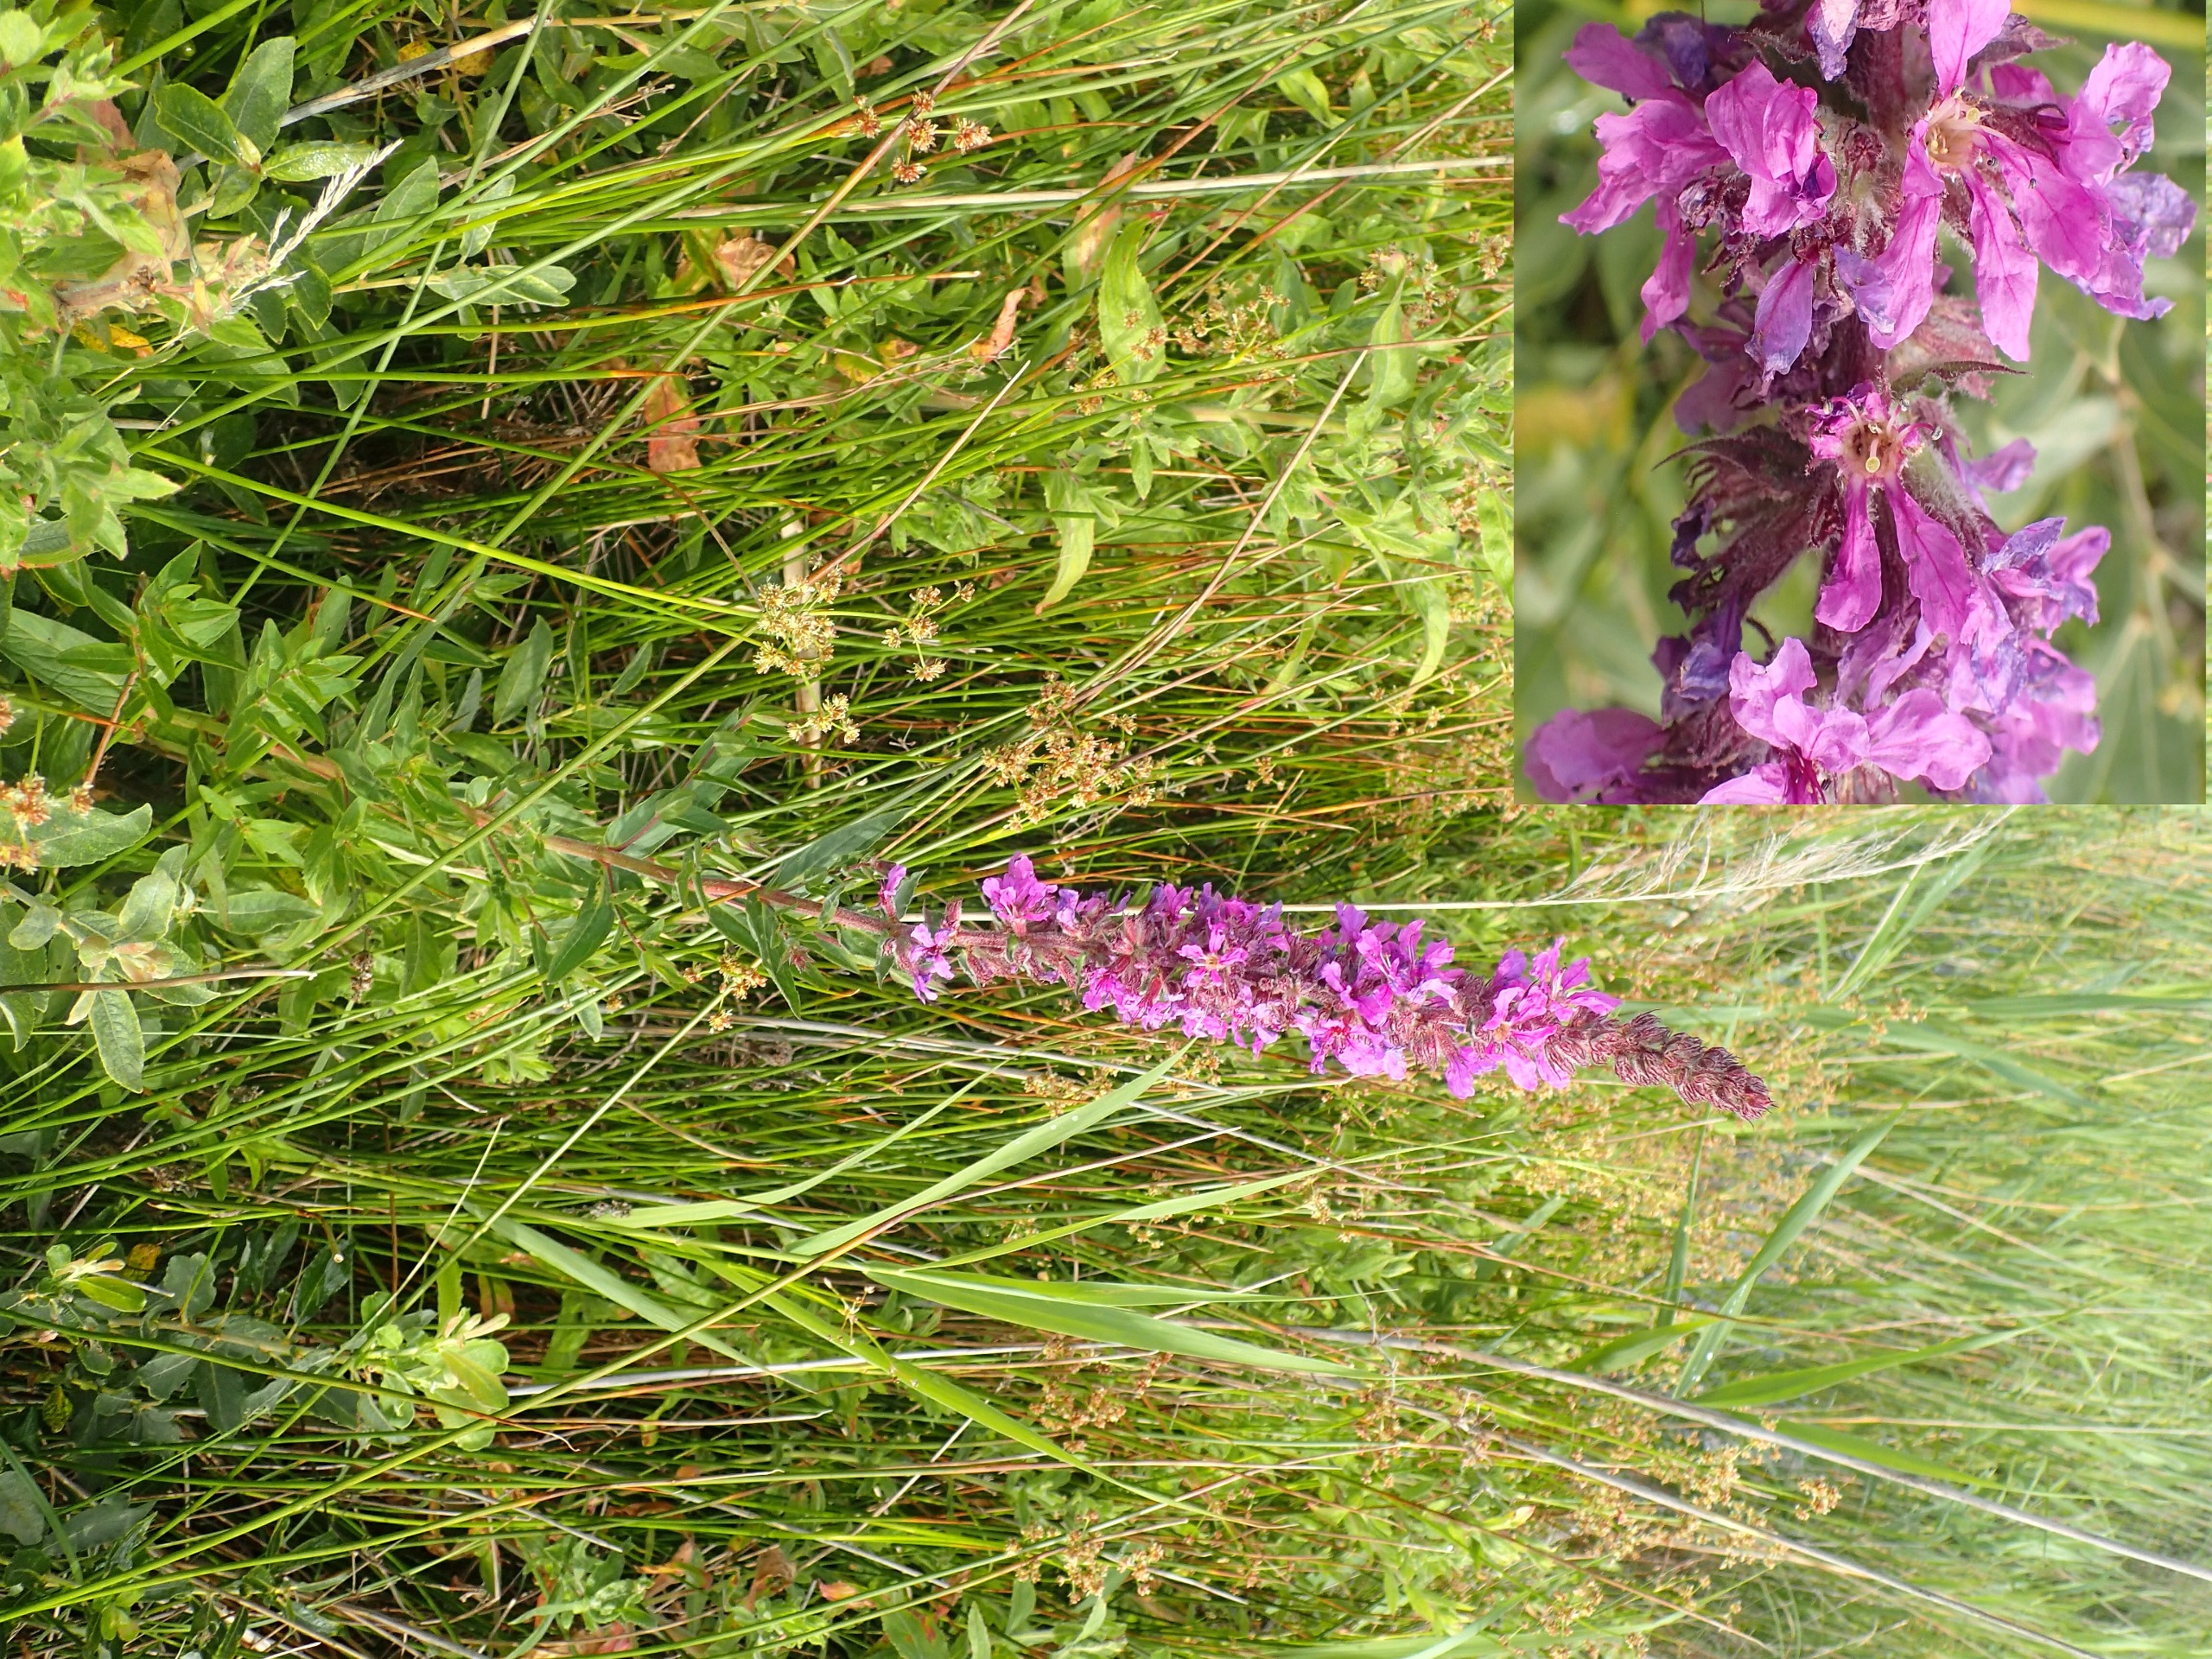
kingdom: Plantae
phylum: Tracheophyta
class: Magnoliopsida
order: Myrtales
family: Lythraceae
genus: Lythrum
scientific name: Lythrum salicaria
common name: Kattehale
